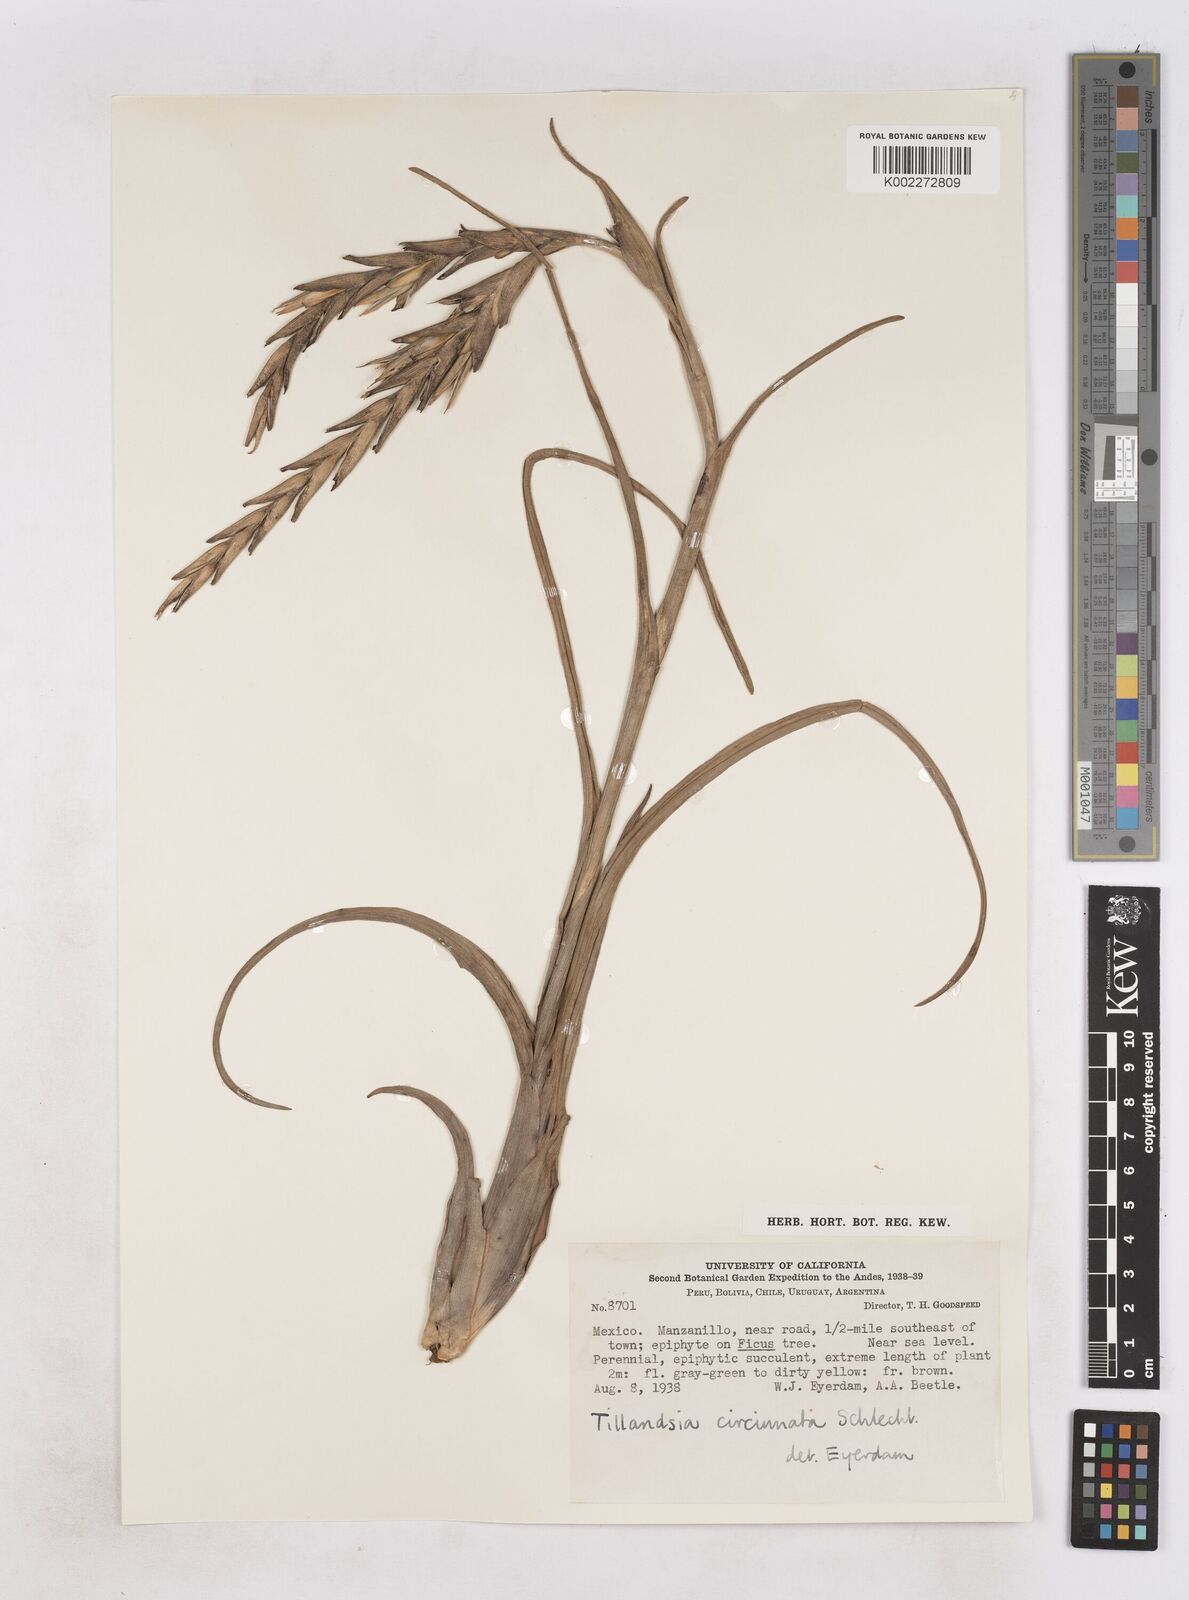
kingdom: Plantae
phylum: Tracheophyta
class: Liliopsida
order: Poales
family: Bromeliaceae
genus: Tillandsia
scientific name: Tillandsia
